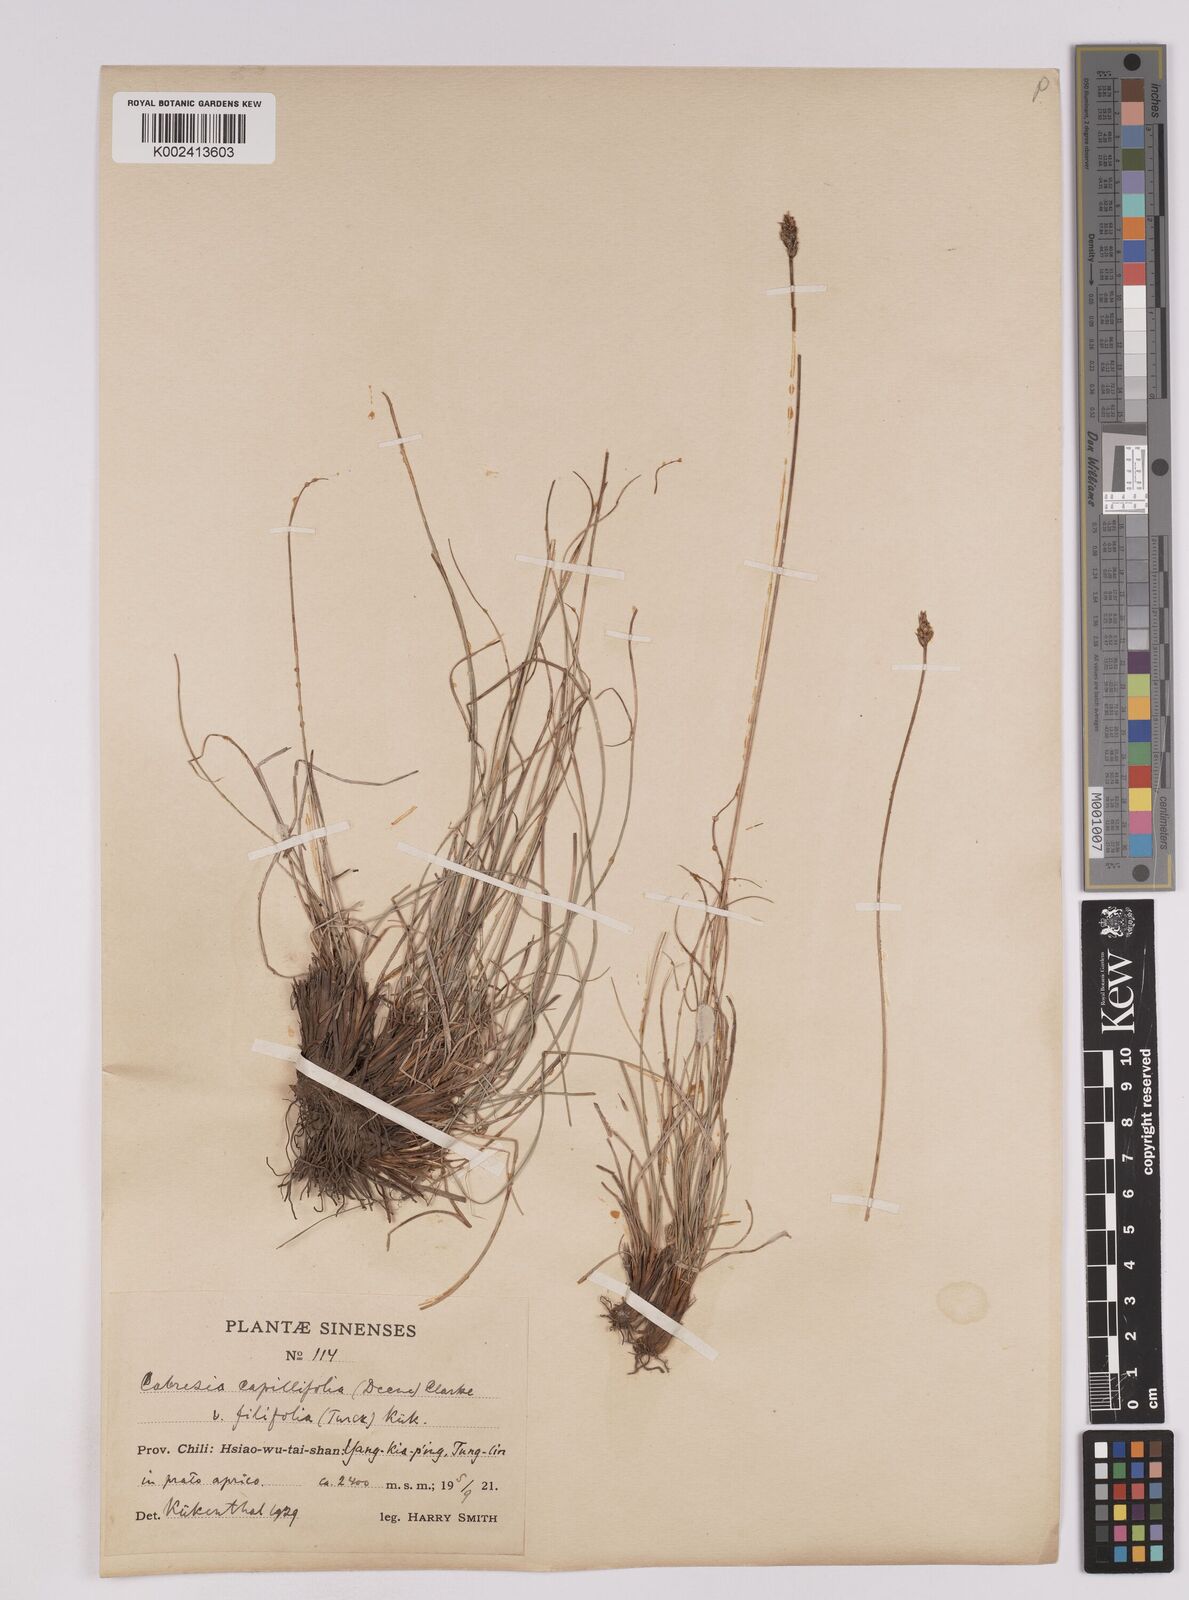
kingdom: Plantae
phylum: Tracheophyta
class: Liliopsida
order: Poales
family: Cyperaceae
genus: Carex
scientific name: Carex macroprophylla
